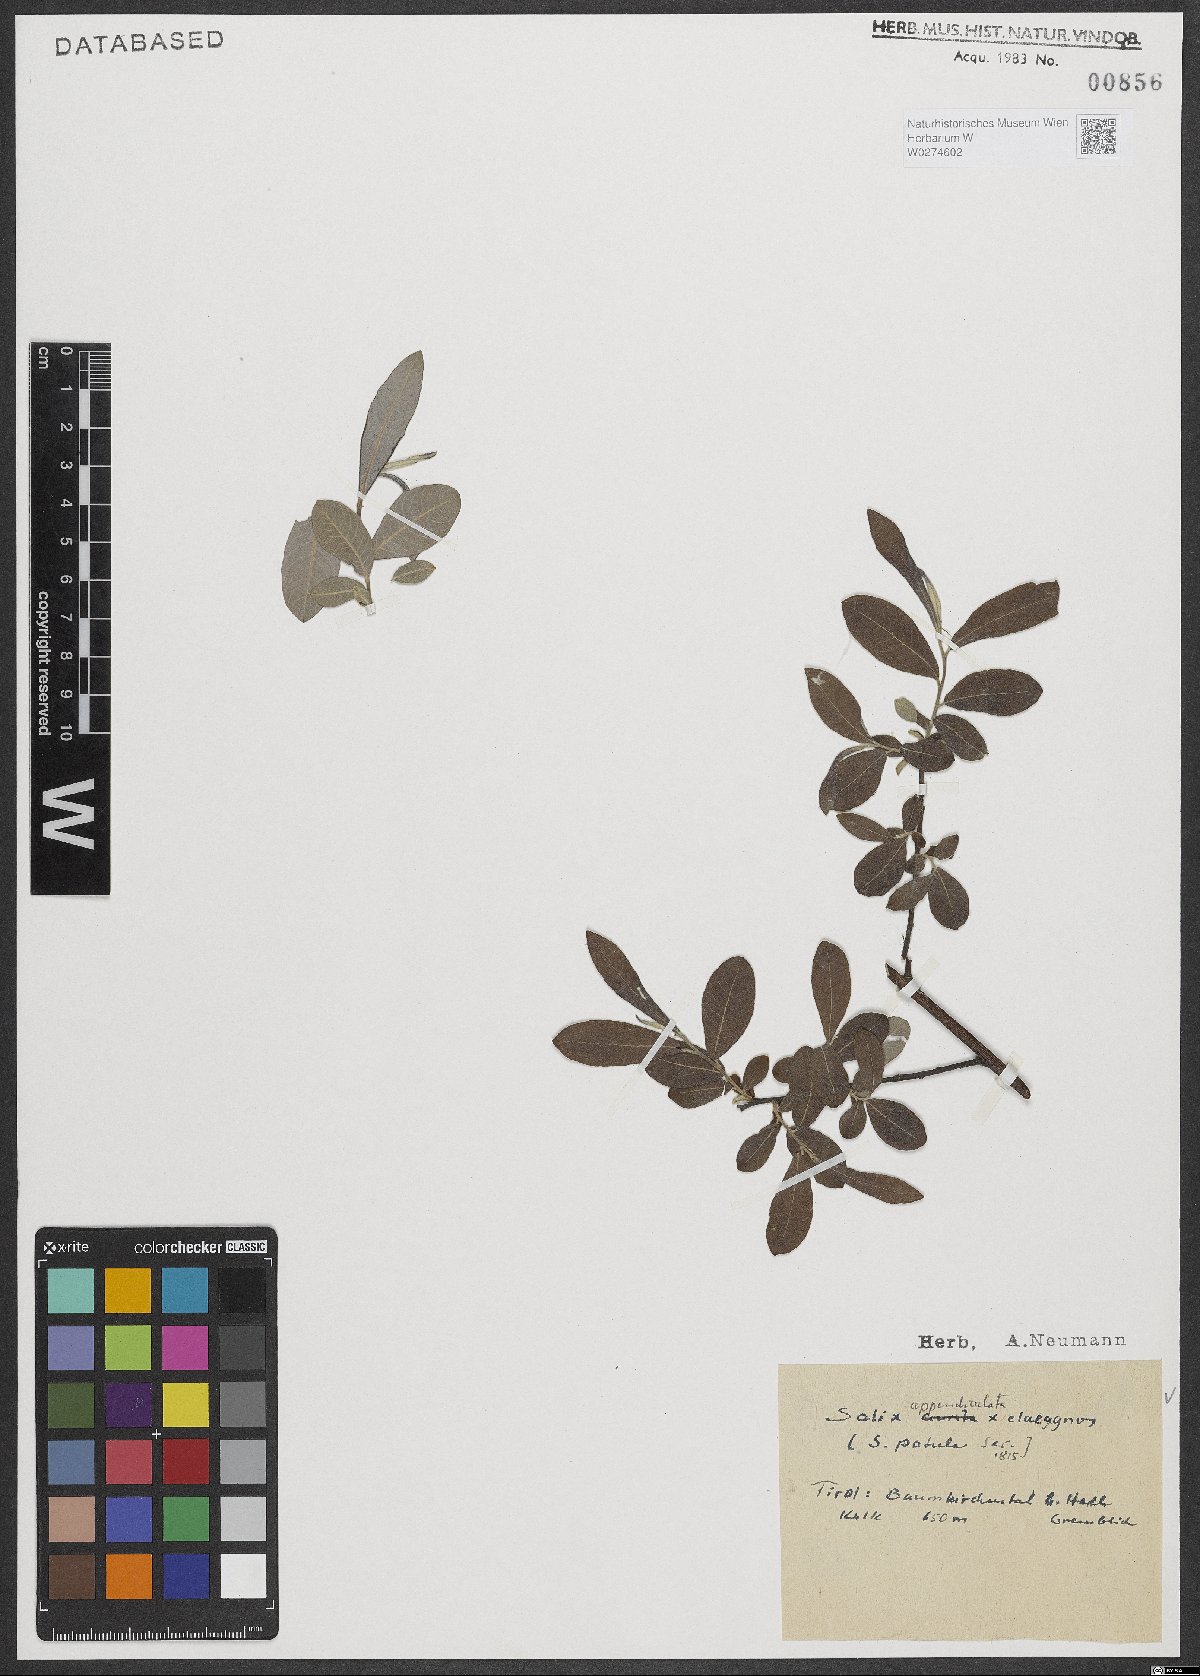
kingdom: Plantae
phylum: Tracheophyta
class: Magnoliopsida
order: Malpighiales
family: Salicaceae
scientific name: Salicaceae
